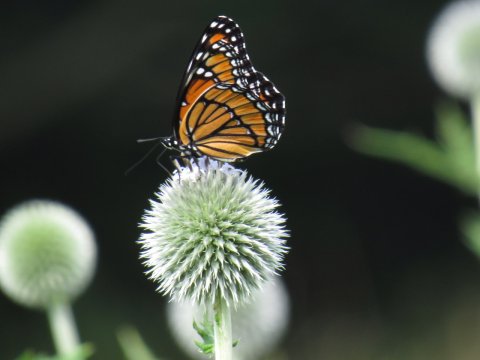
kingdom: Animalia
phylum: Arthropoda
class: Insecta
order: Lepidoptera
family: Nymphalidae
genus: Limenitis
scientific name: Limenitis archippus
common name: Viceroy
